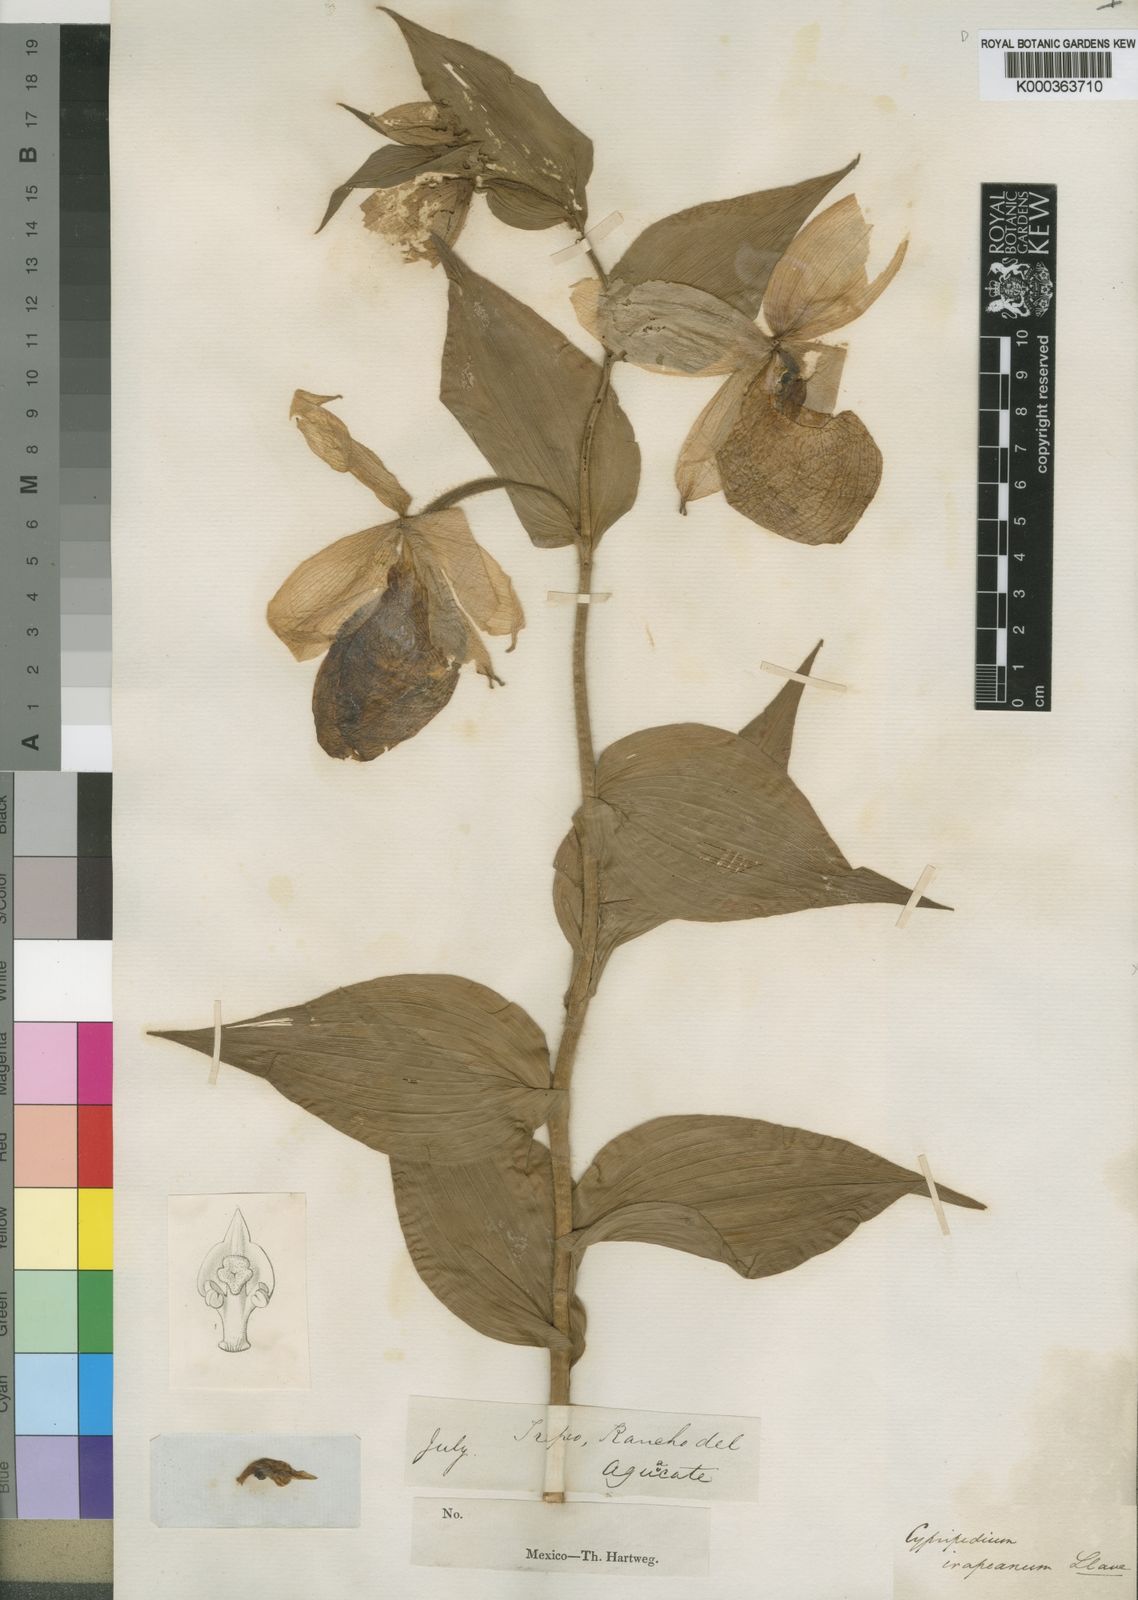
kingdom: Plantae
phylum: Tracheophyta
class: Liliopsida
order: Asparagales
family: Orchidaceae
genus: Cypripedium
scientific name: Cypripedium irapeanum
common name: Irapeao cypripedium
